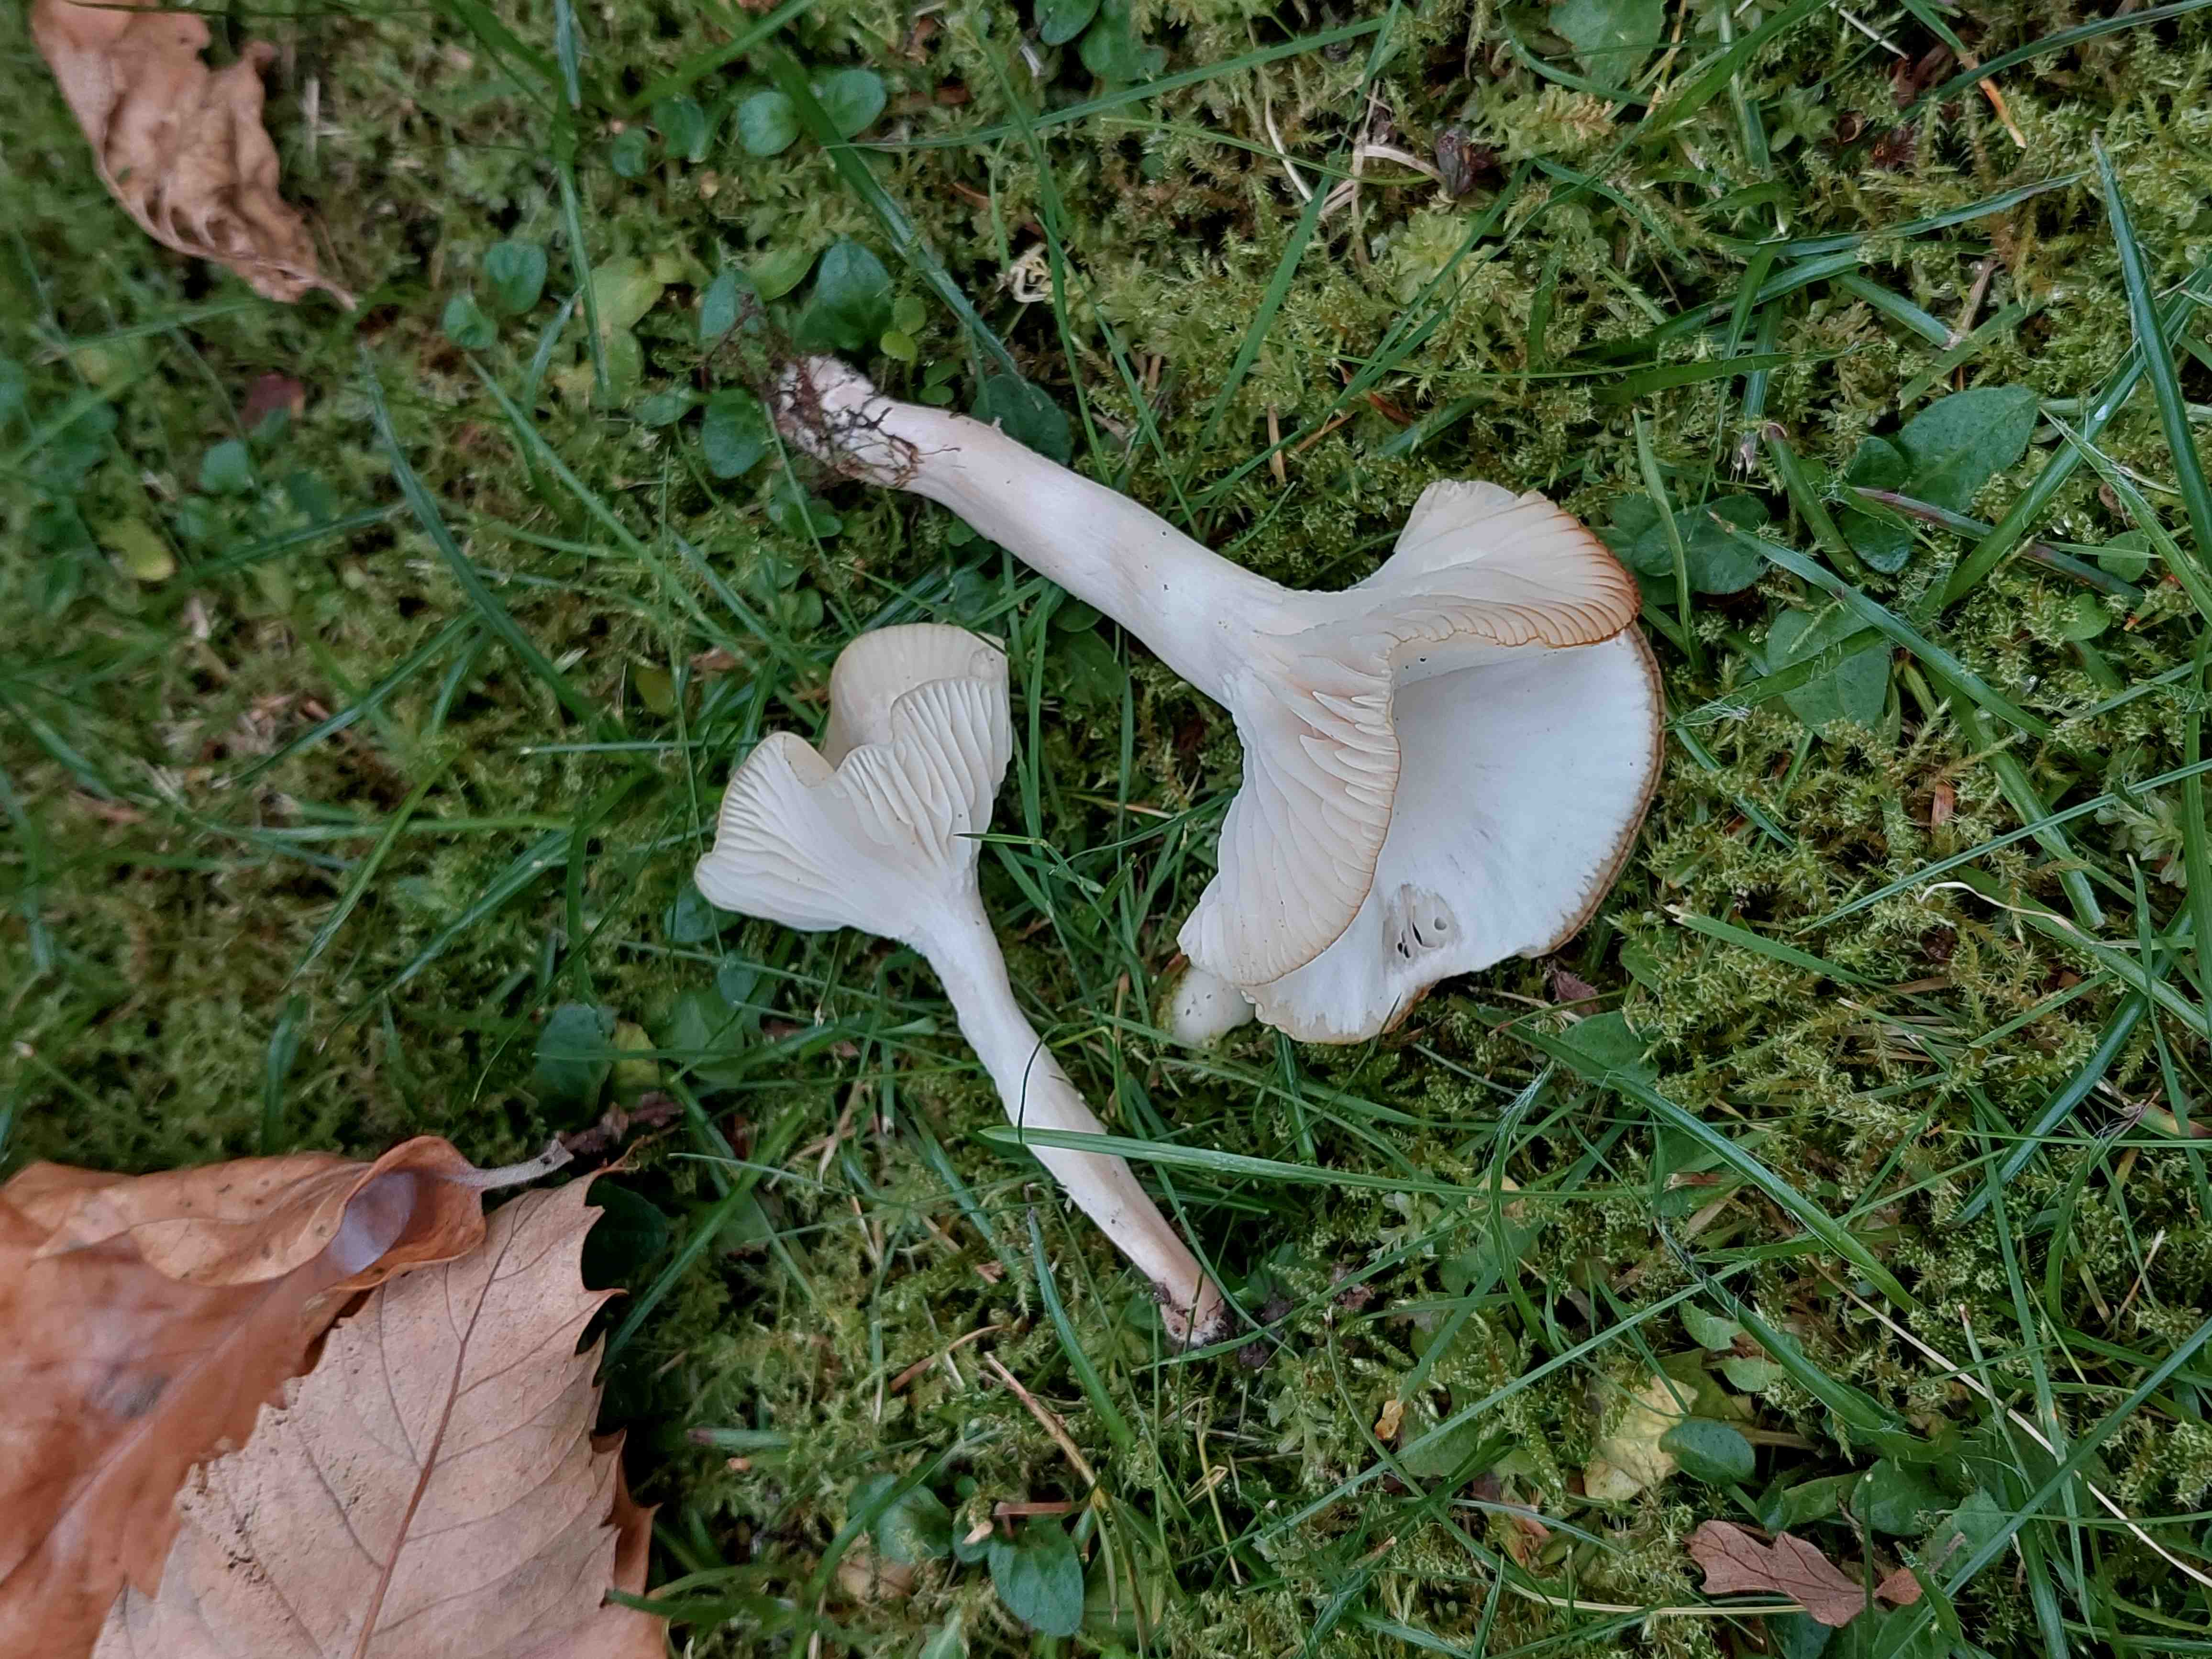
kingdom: Fungi
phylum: Basidiomycota
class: Agaricomycetes
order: Agaricales
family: Hygrophoraceae
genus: Cuphophyllus
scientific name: Cuphophyllus virgineus
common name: snehvid vokshat
